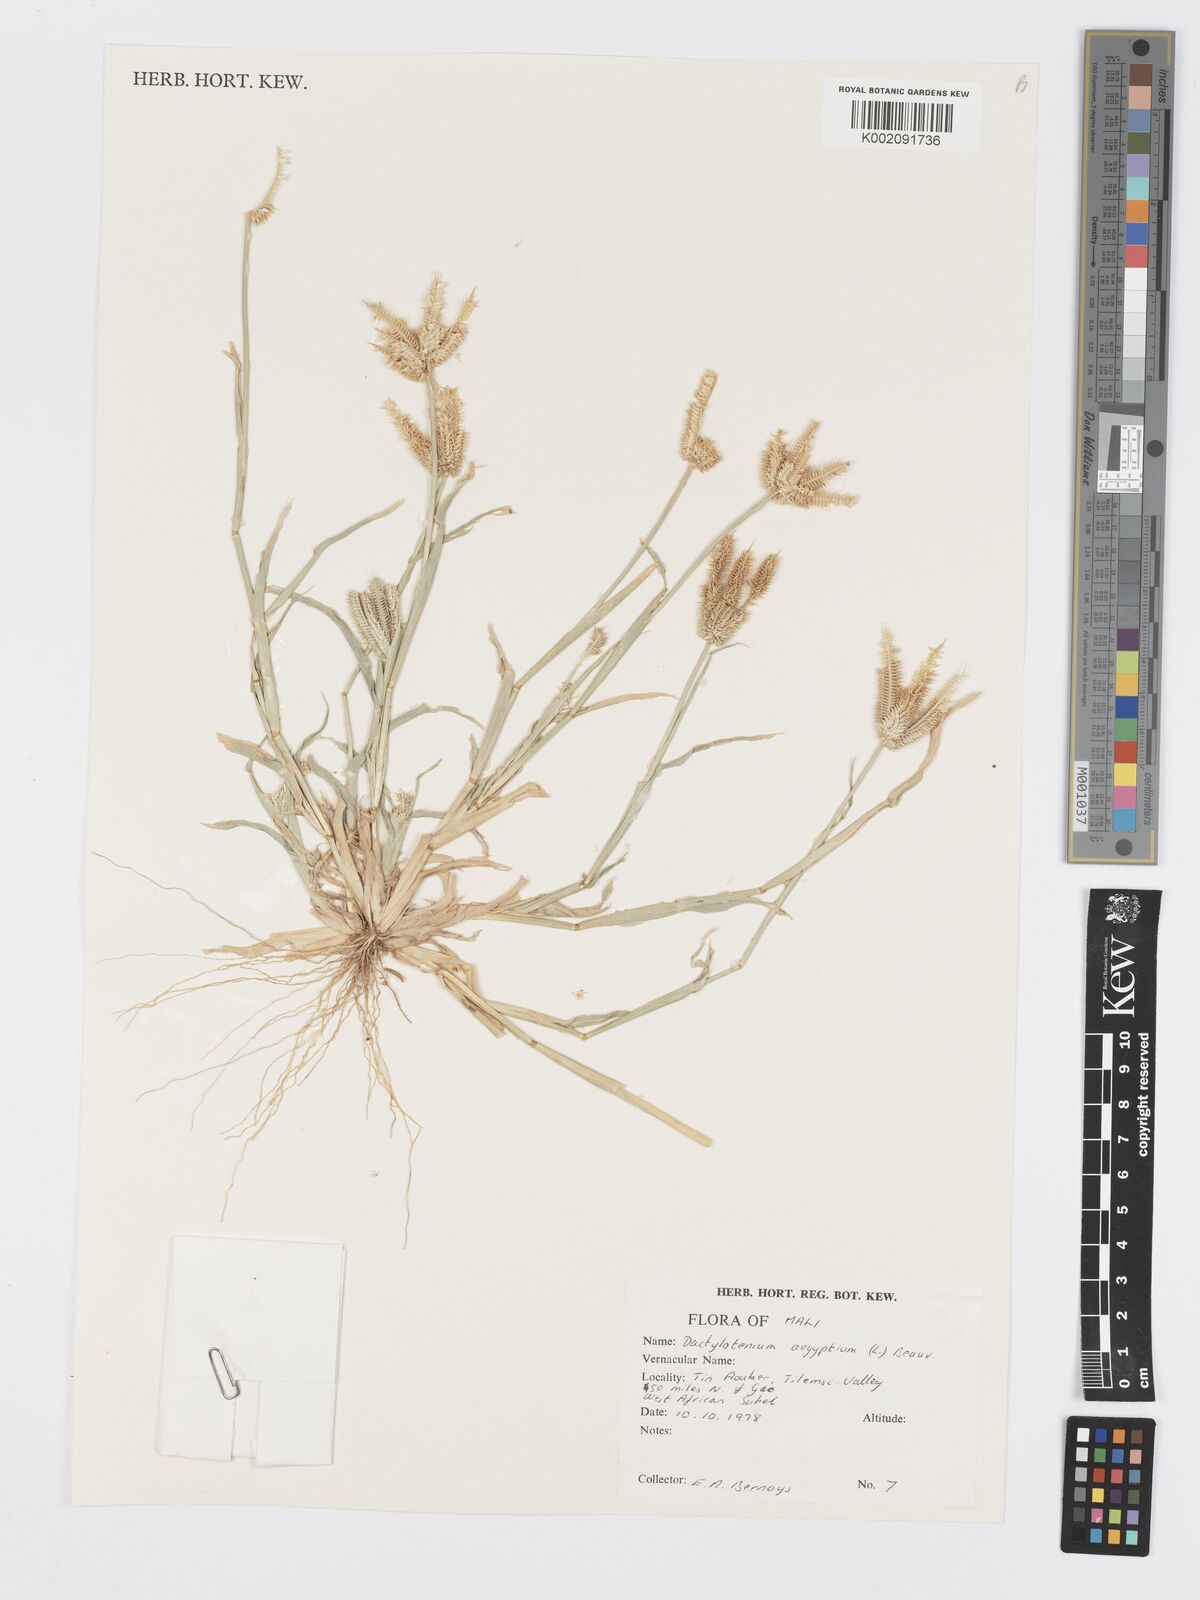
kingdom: Plantae
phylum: Tracheophyta
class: Liliopsida
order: Poales
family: Poaceae
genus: Dactyloctenium
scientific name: Dactyloctenium aegyptium
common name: Egyptian grass
